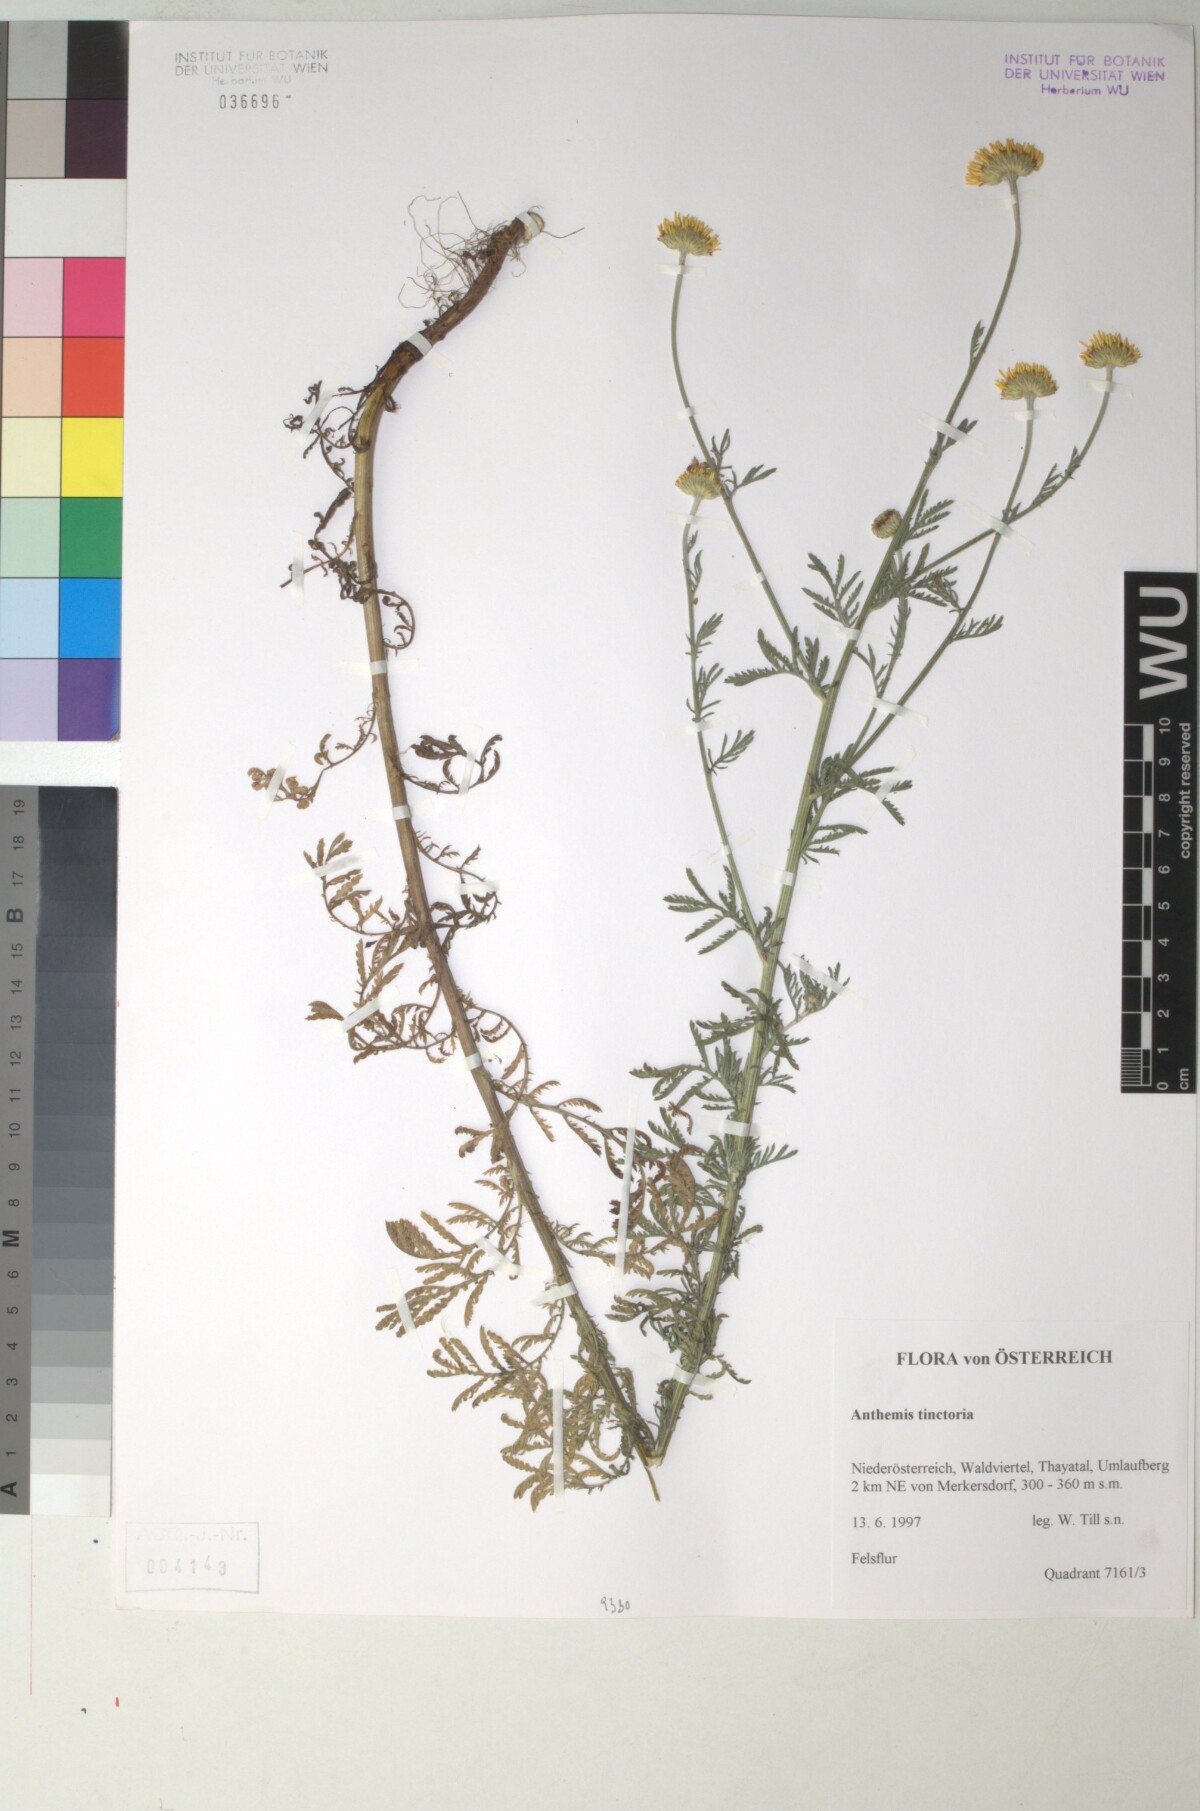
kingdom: Plantae
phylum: Tracheophyta
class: Magnoliopsida
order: Asterales
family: Asteraceae
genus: Cota
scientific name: Cota tinctoria
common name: Golden chamomile
